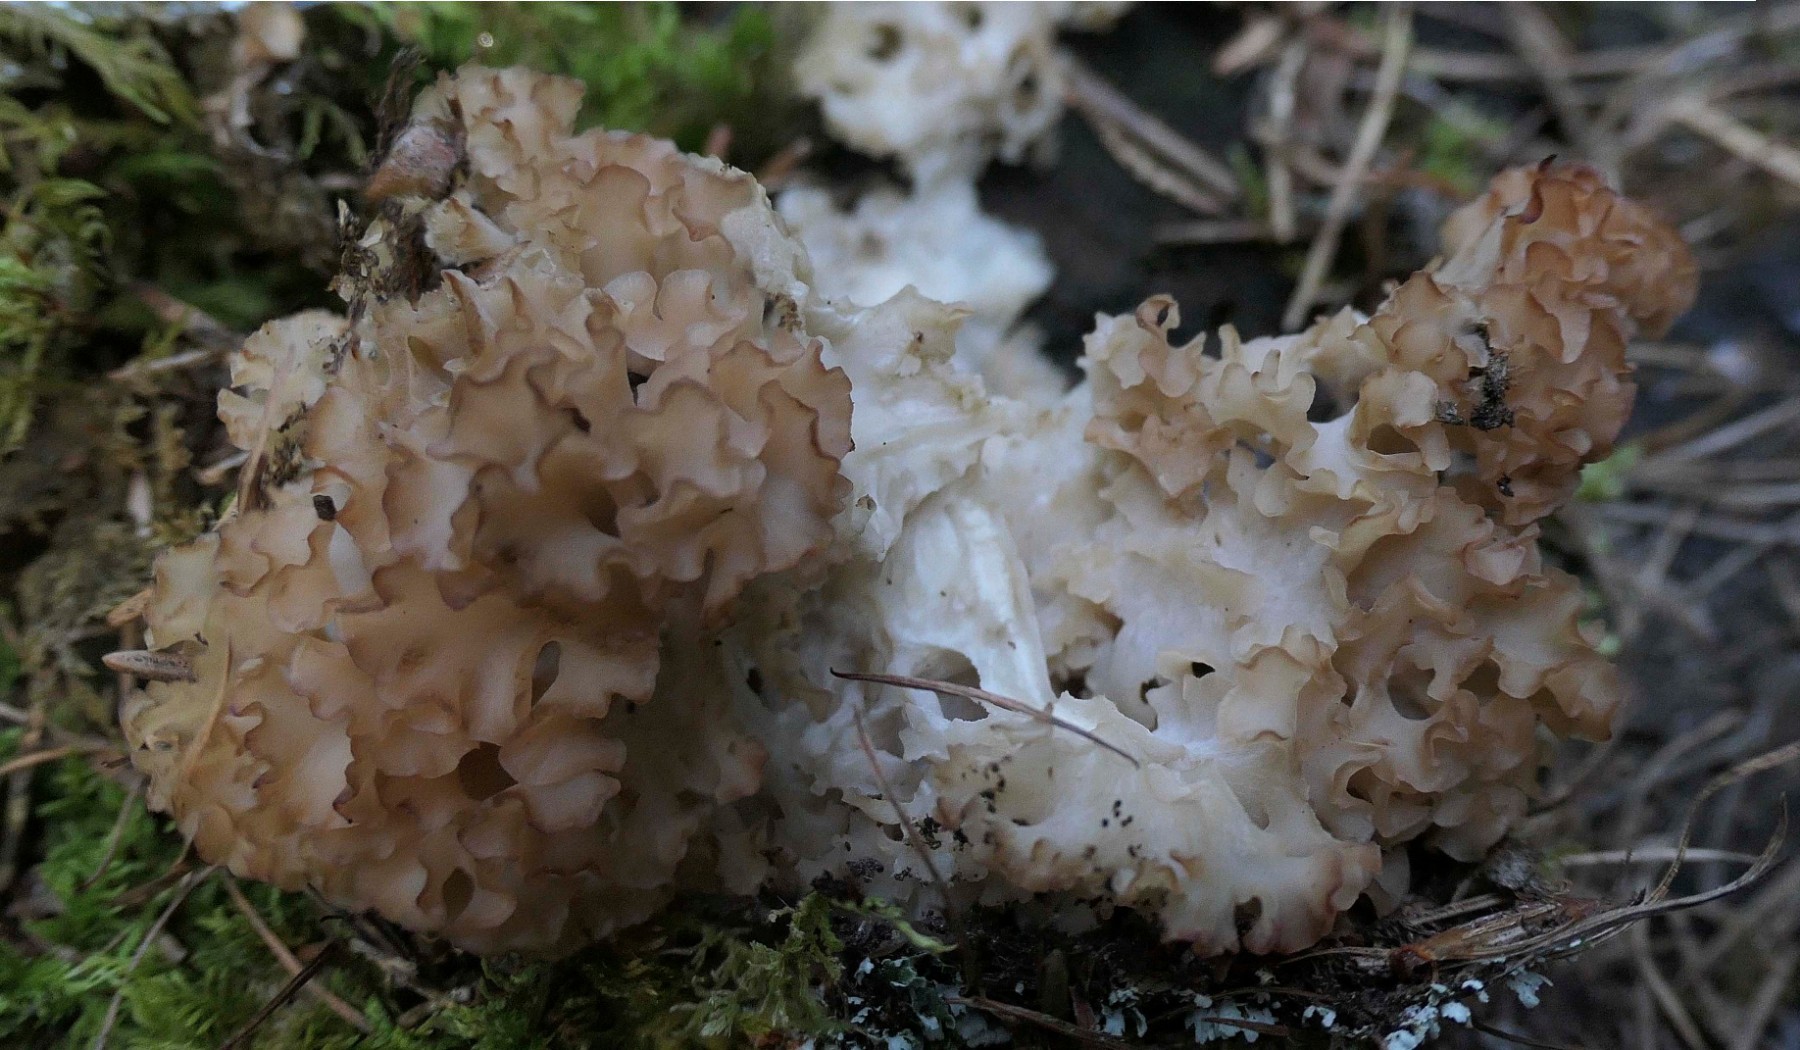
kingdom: Fungi
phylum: Basidiomycota
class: Agaricomycetes
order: Polyporales
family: Sparassidaceae
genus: Sparassis
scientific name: Sparassis crispa
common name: kruset blomkålssvamp
